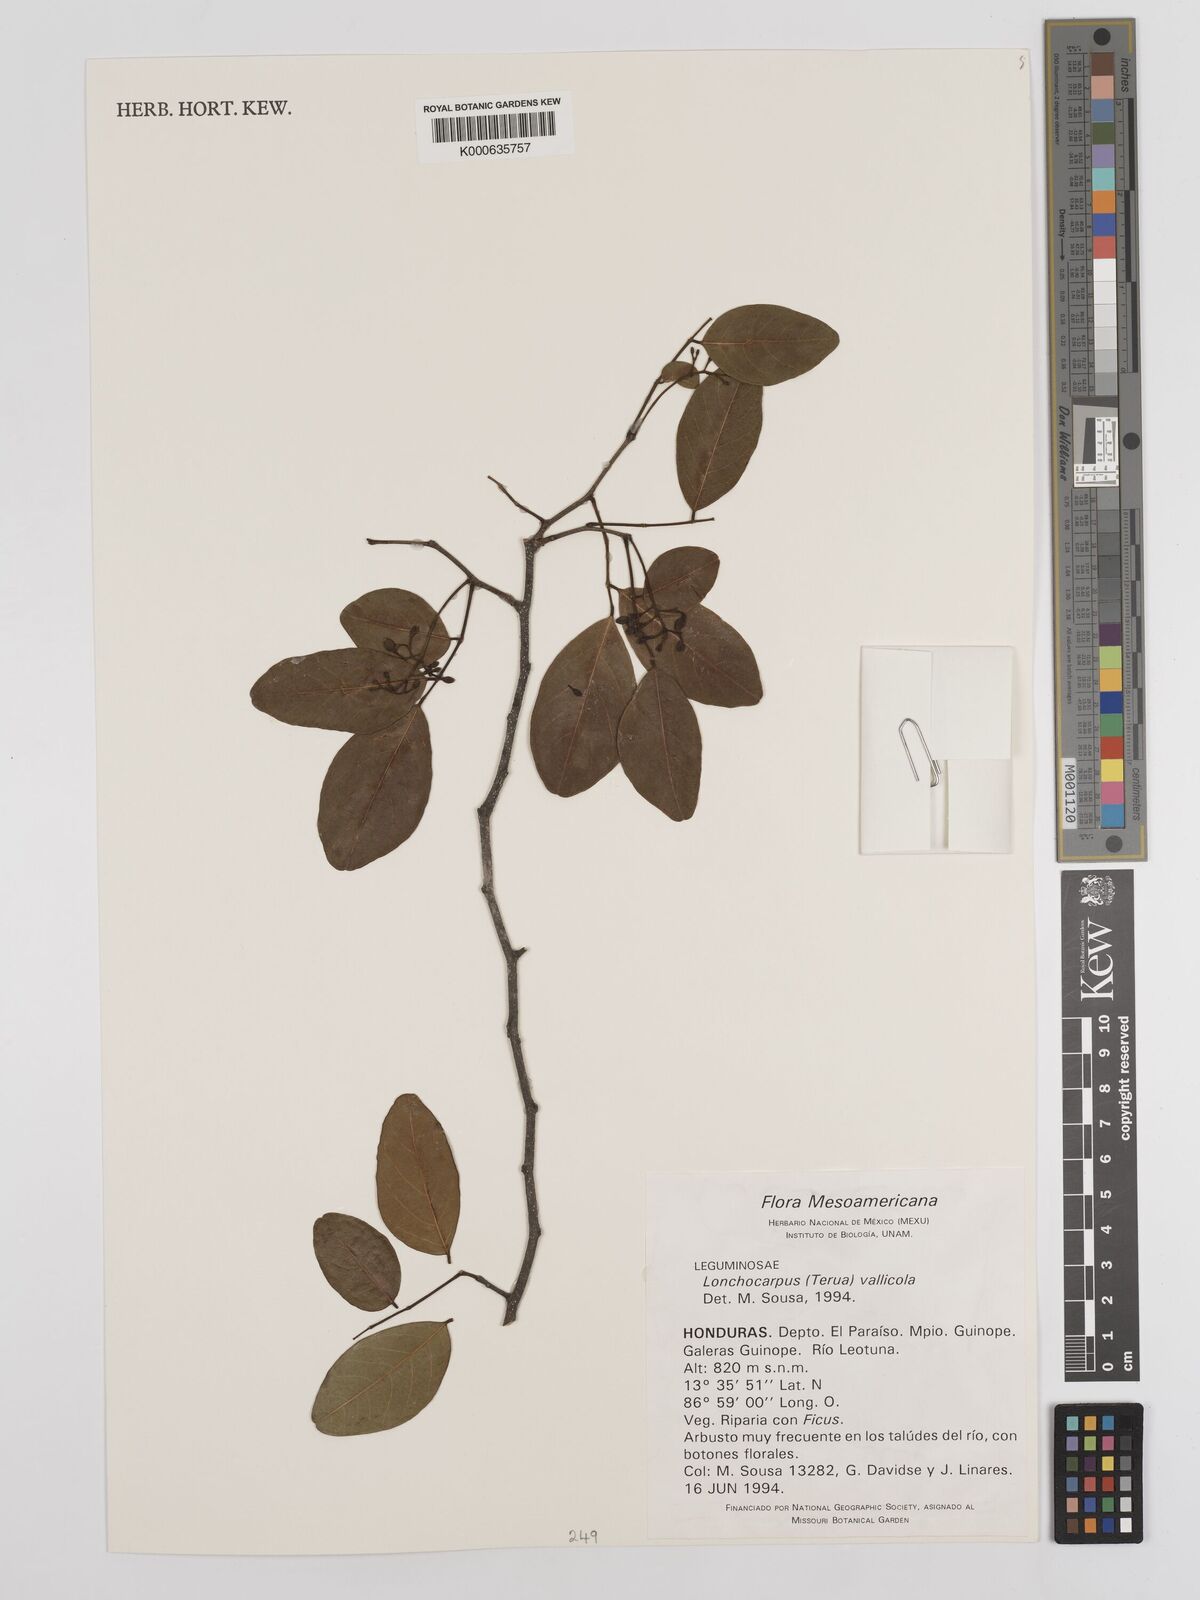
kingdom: Plantae
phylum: Tracheophyta
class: Magnoliopsida
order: Fabales
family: Fabaceae
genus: Lonchocarpus
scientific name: Lonchocarpus vallicola
